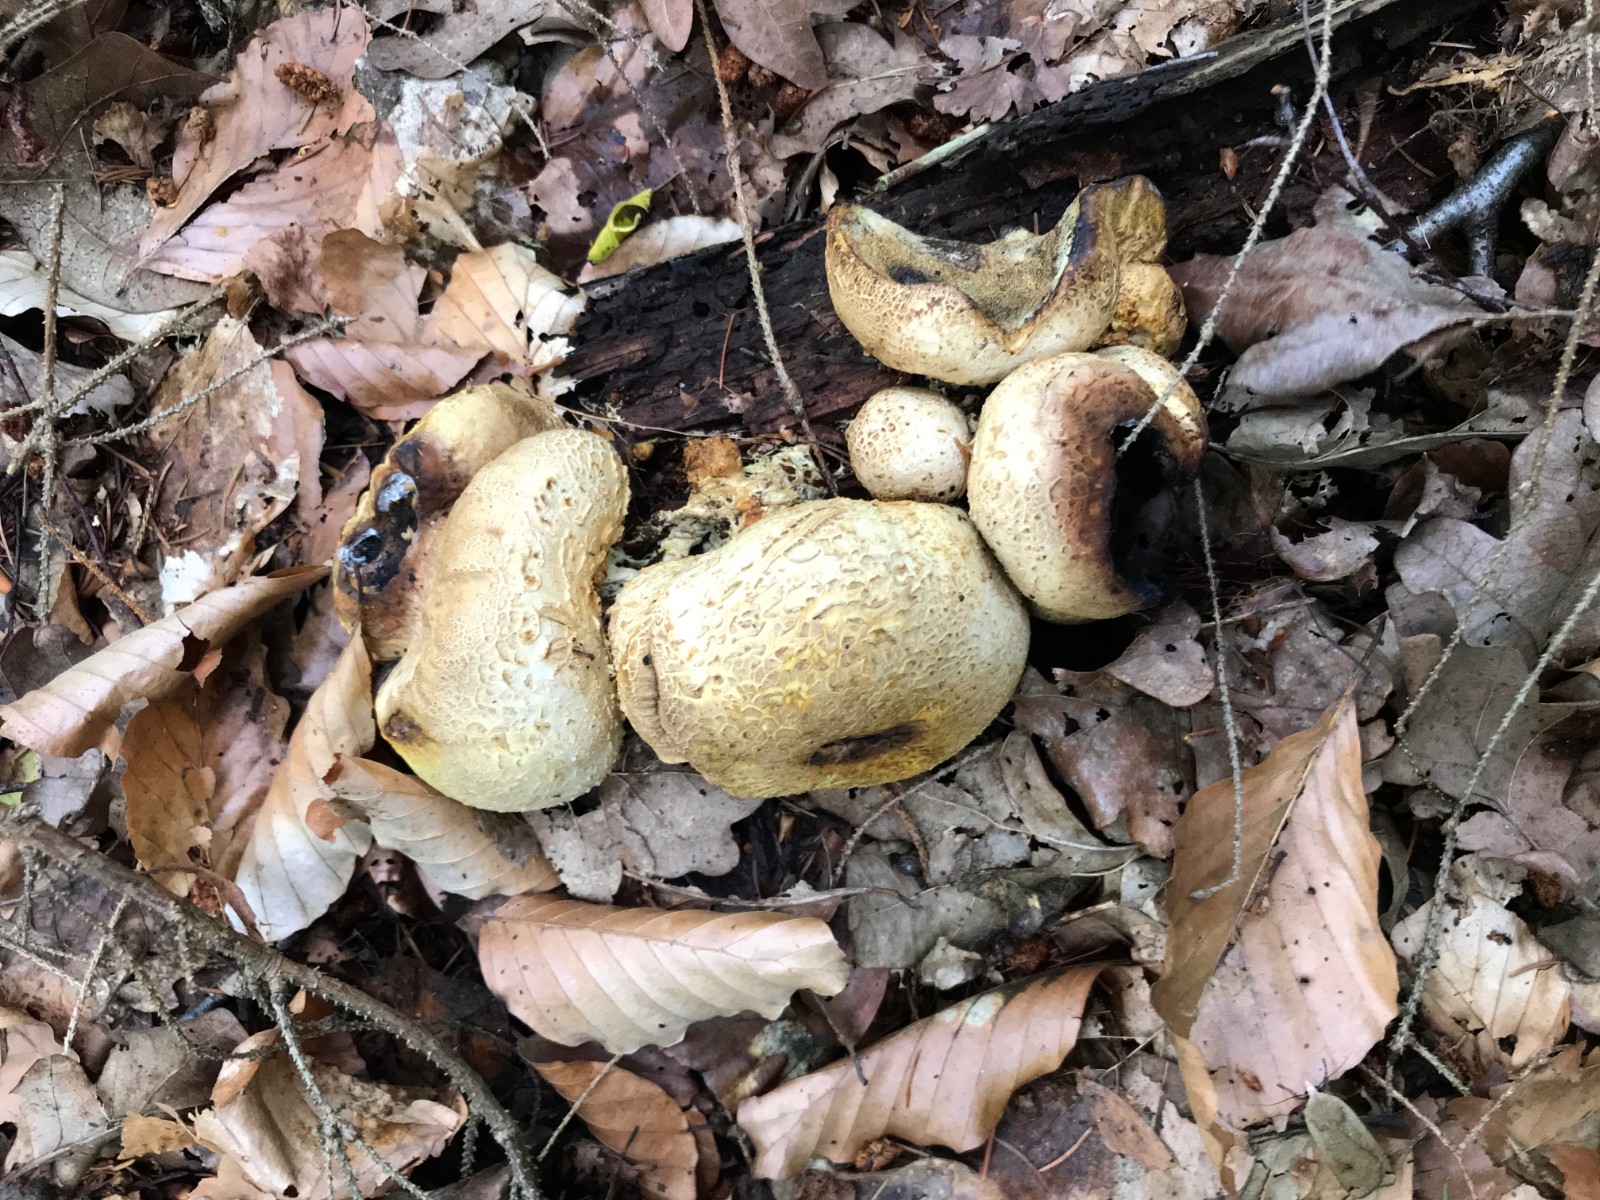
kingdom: Fungi
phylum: Basidiomycota
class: Agaricomycetes
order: Boletales
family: Sclerodermataceae
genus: Scleroderma
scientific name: Scleroderma citrinum
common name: almindelig bruskbold
